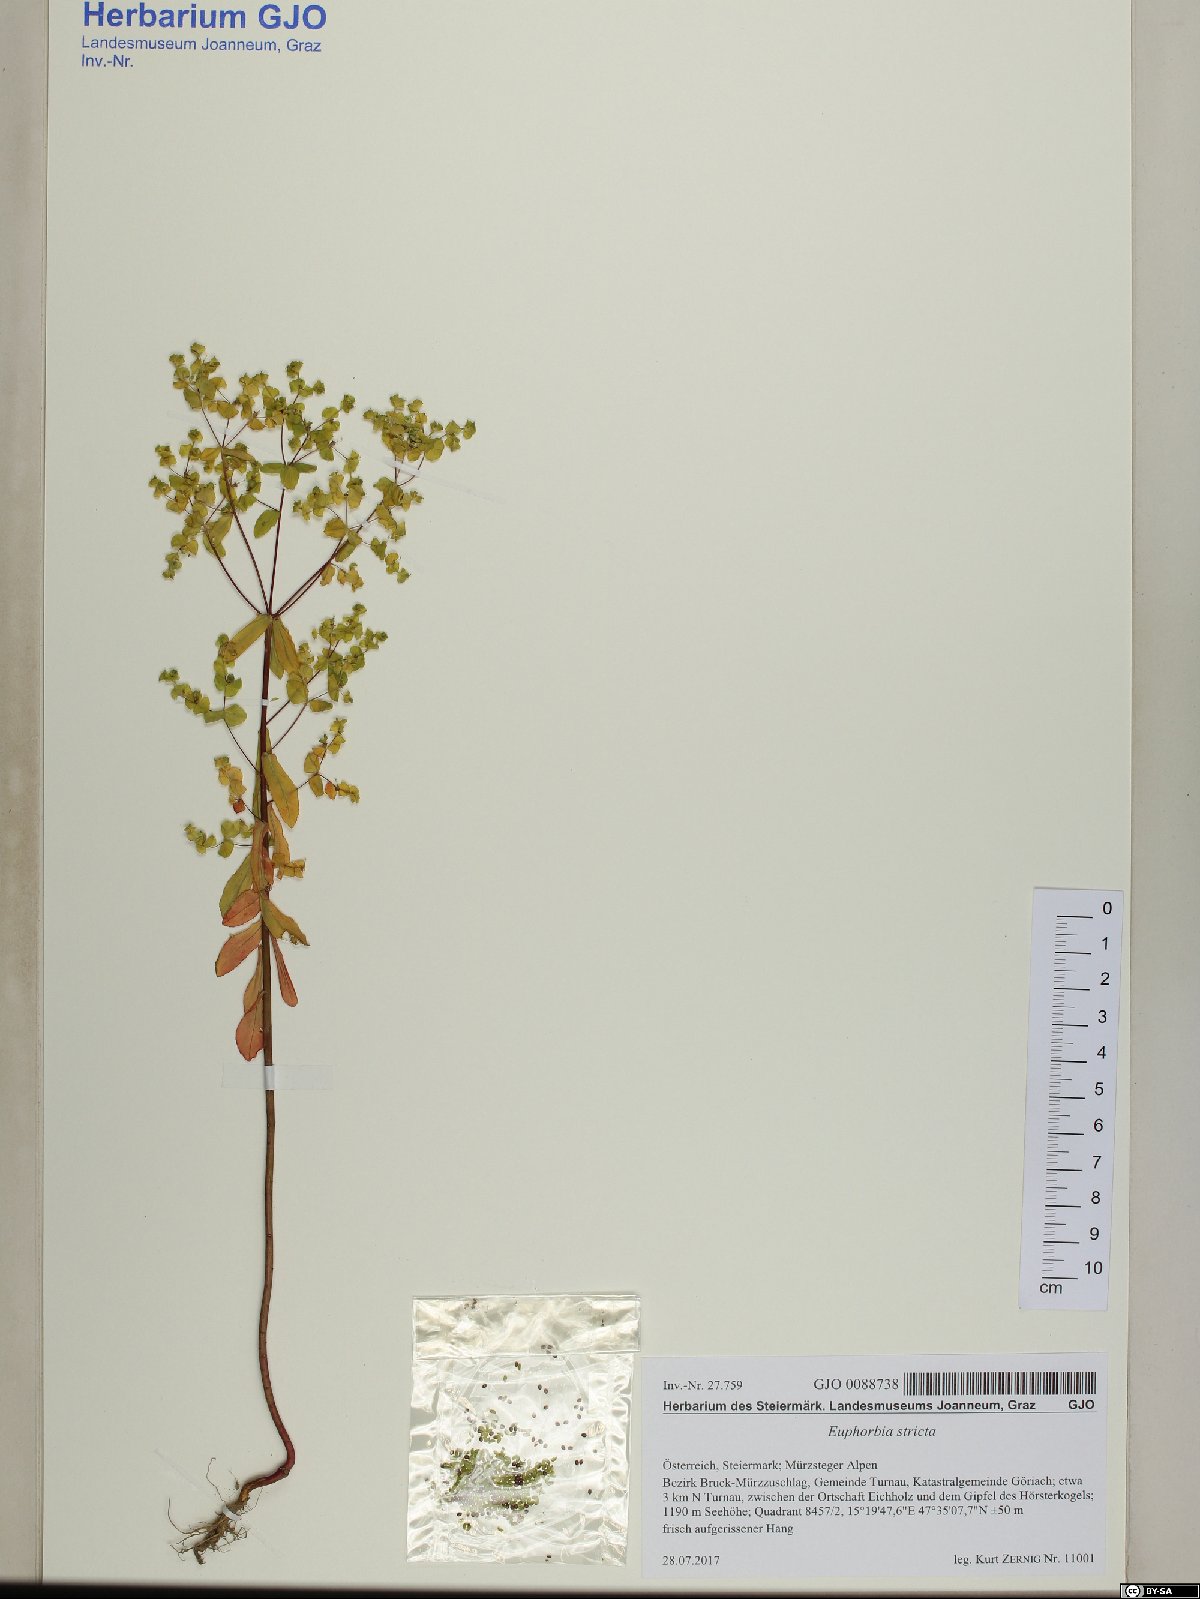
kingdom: Plantae
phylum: Tracheophyta
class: Magnoliopsida
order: Malpighiales
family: Euphorbiaceae
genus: Euphorbia
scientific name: Euphorbia stricta
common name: Upright spurge
